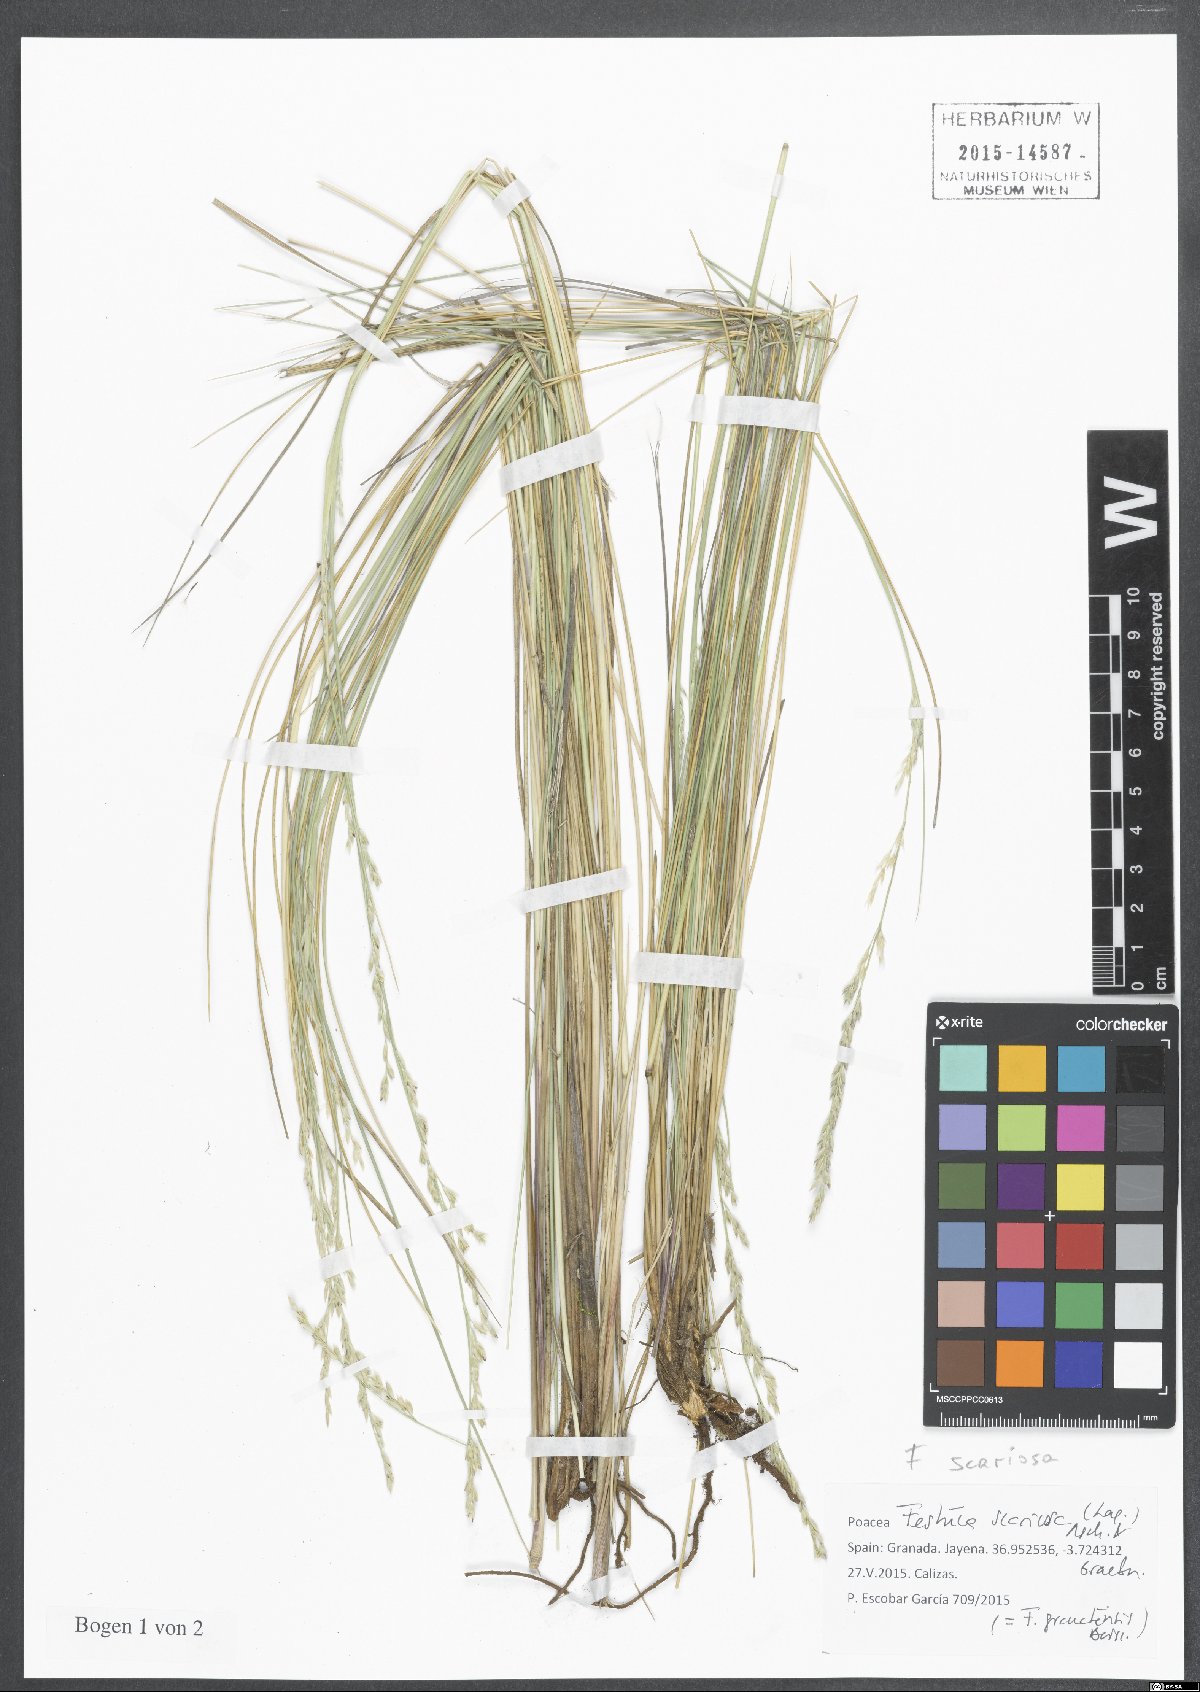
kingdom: Plantae
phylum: Tracheophyta
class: Liliopsida
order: Poales
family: Poaceae
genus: Festuca
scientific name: Festuca scariosa
